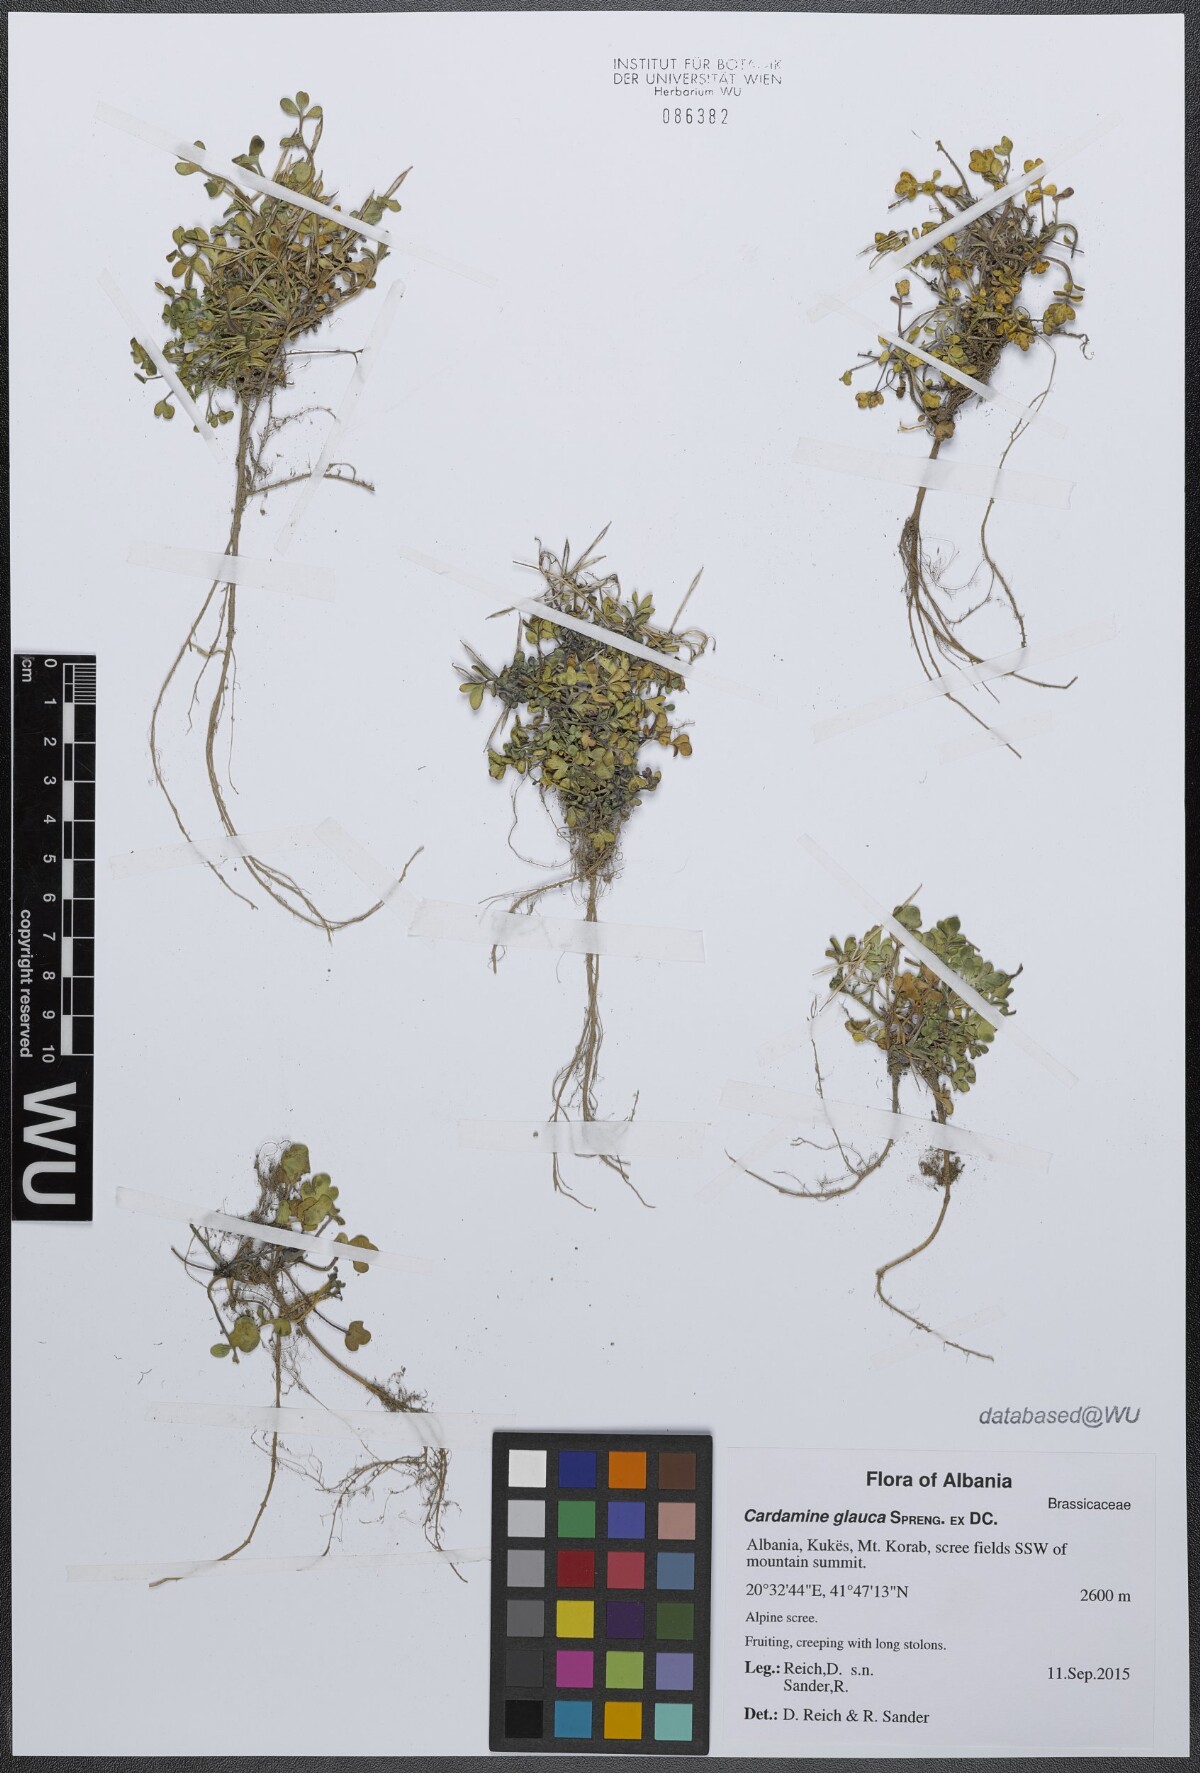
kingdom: Plantae
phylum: Tracheophyta
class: Magnoliopsida
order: Brassicales
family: Brassicaceae
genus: Cardamine
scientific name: Cardamine glauca
